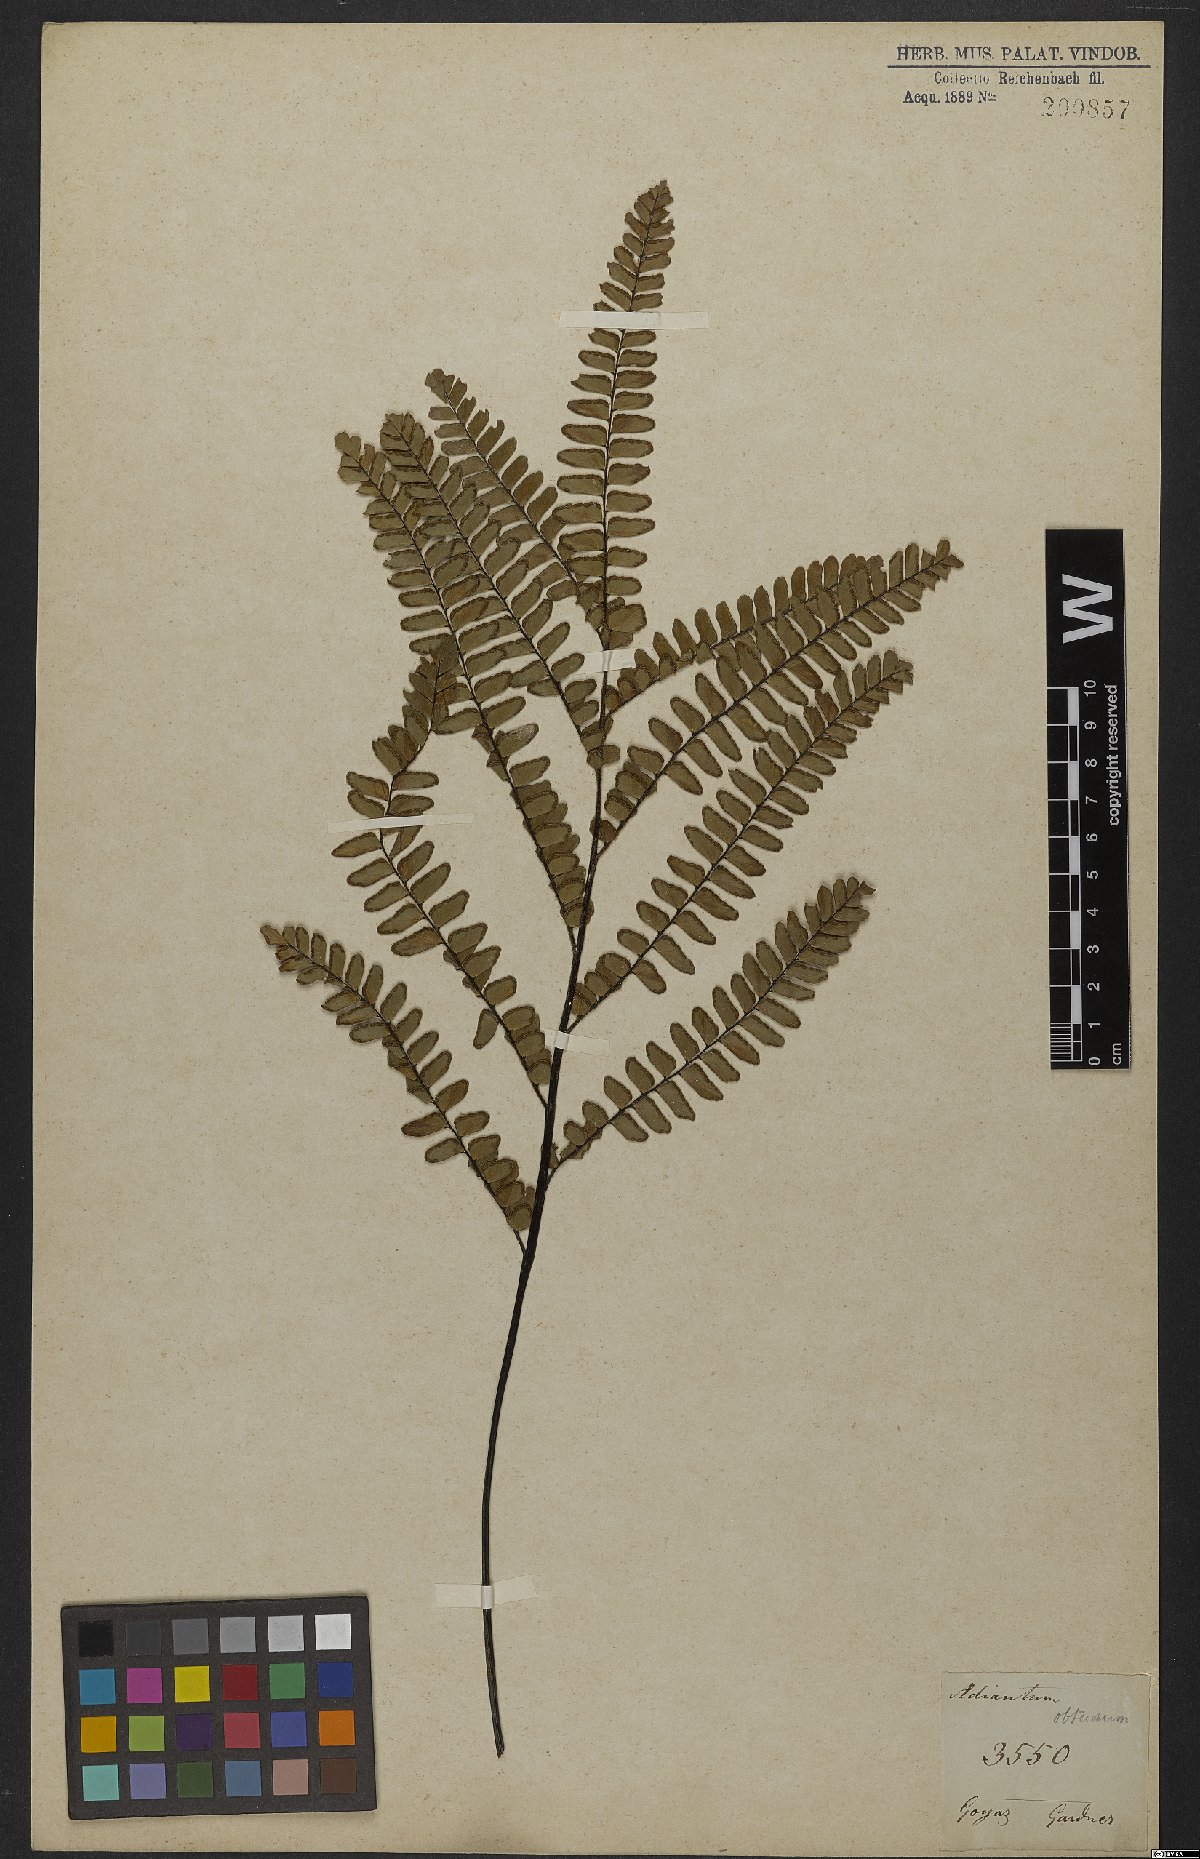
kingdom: Plantae
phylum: Tracheophyta
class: Polypodiopsida
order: Polypodiales
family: Pteridaceae
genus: Adiantum
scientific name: Adiantum serratodentatum
